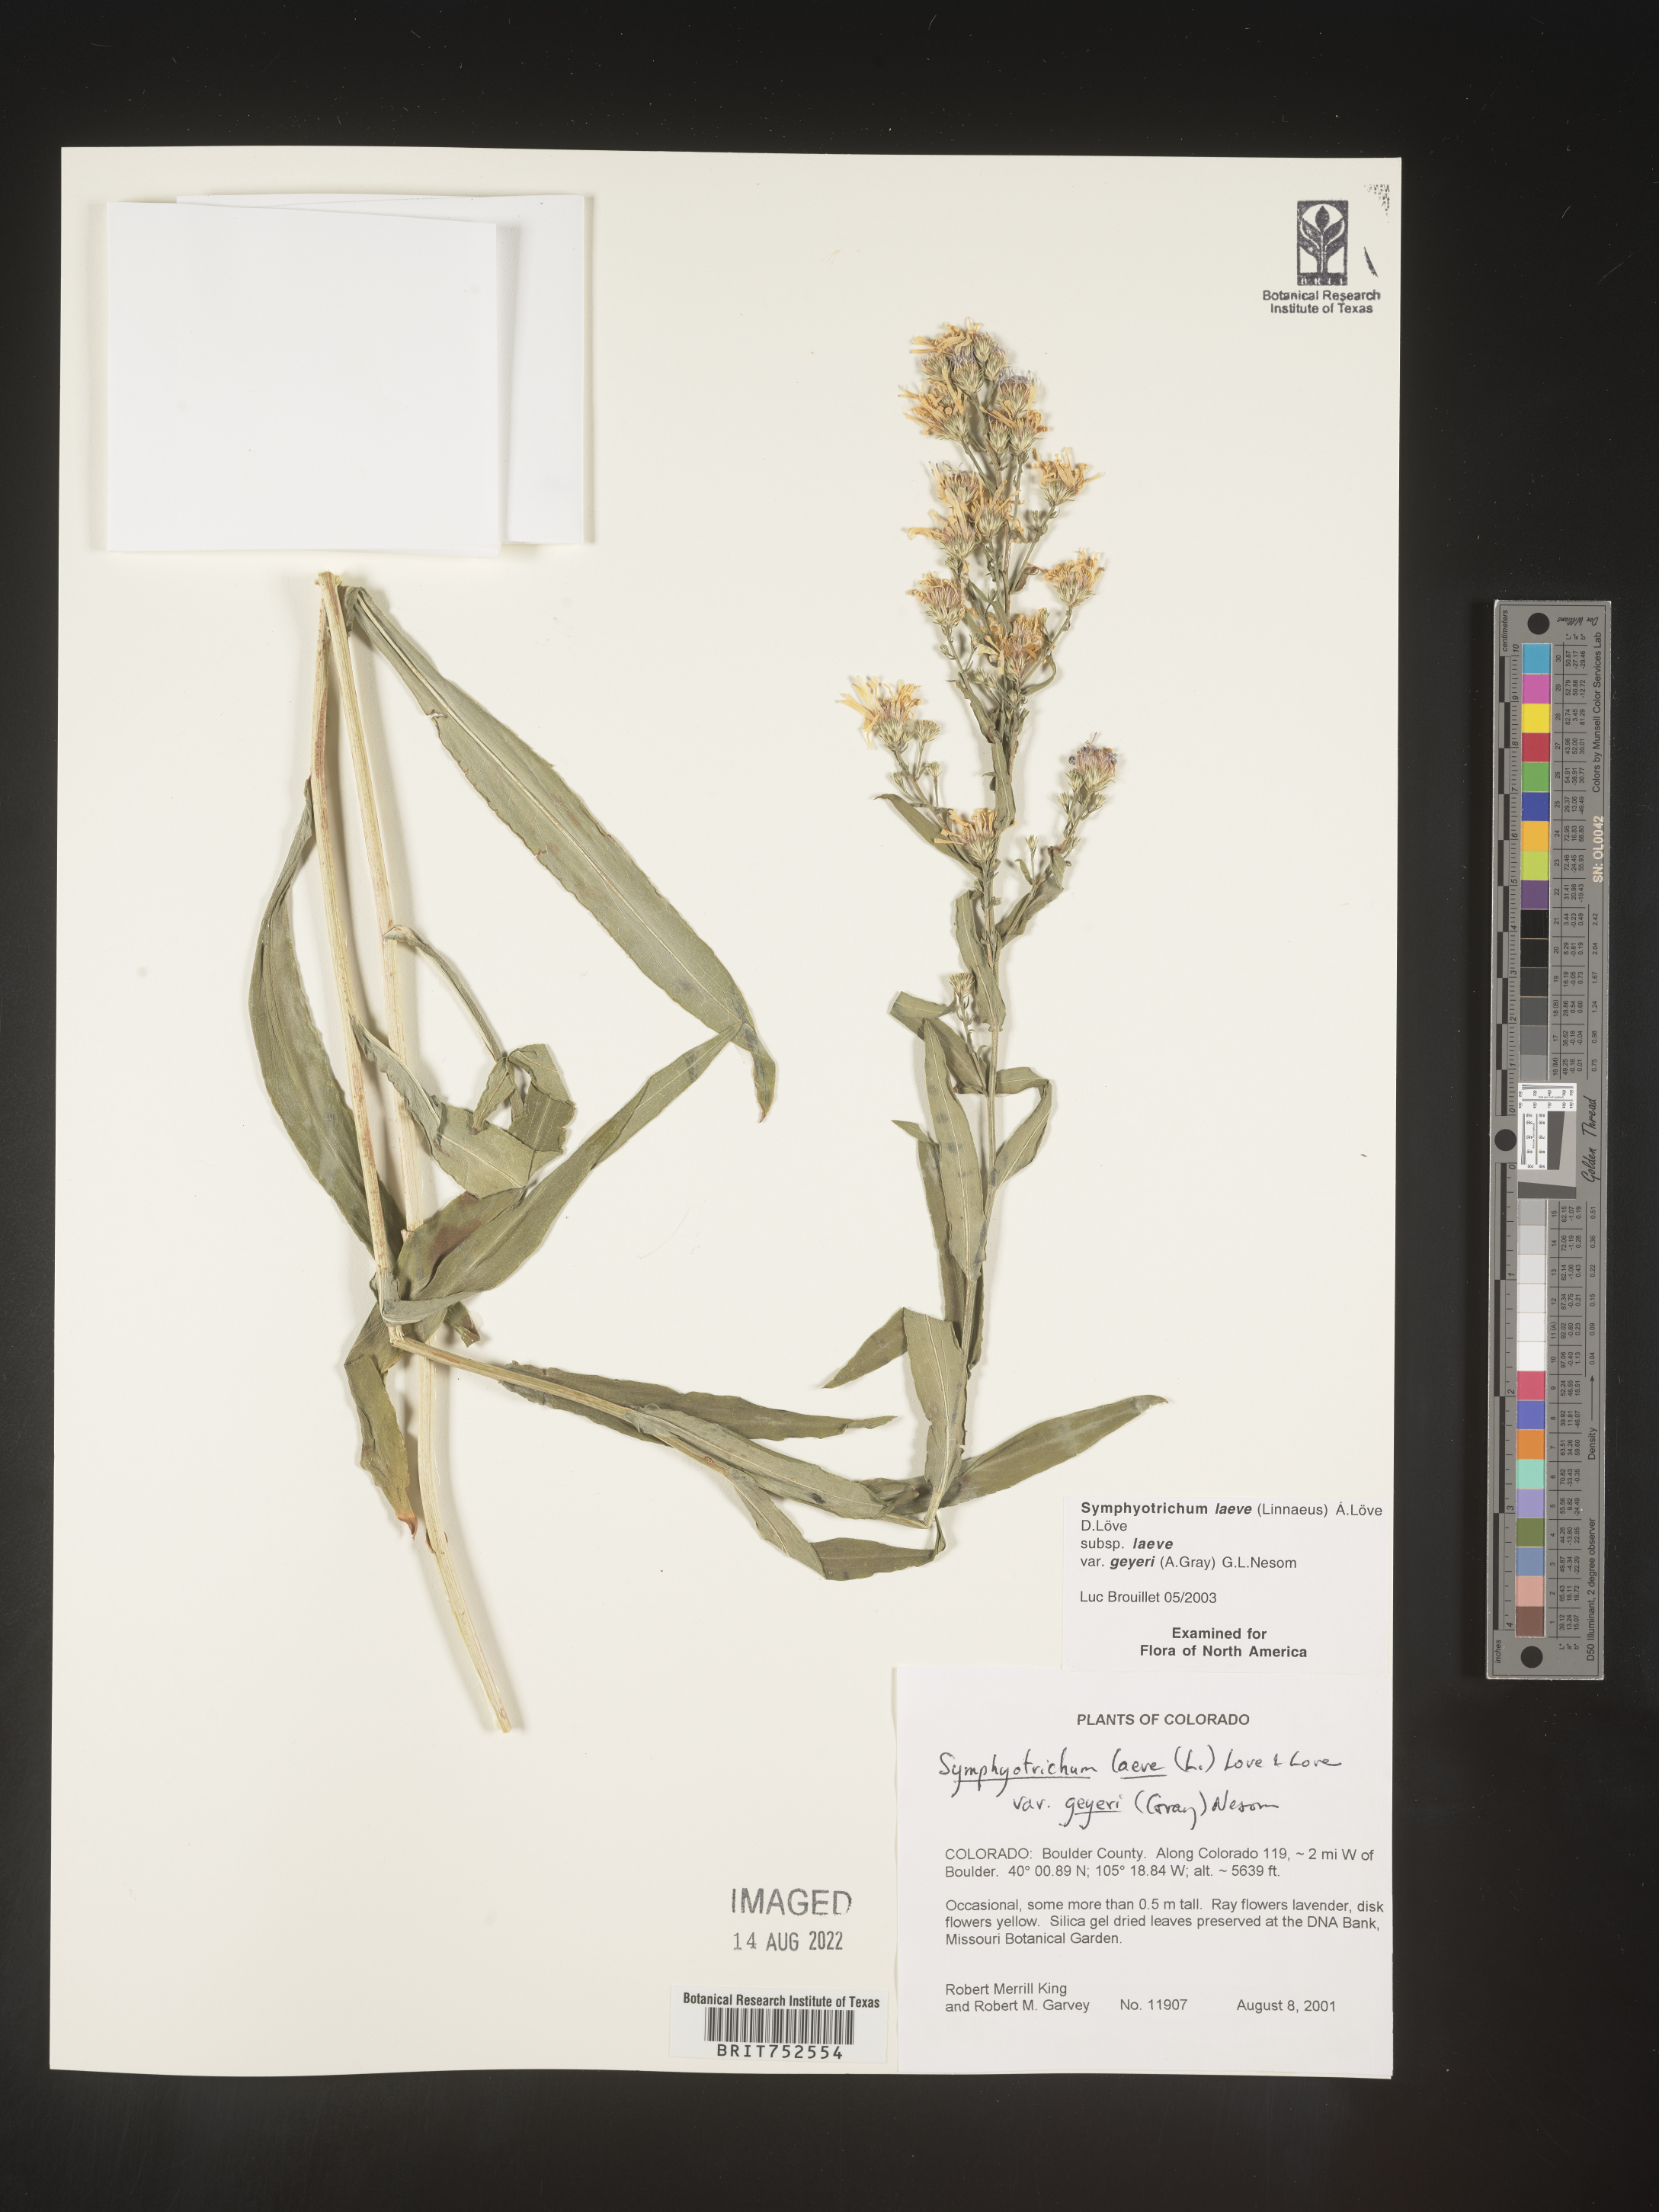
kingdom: Plantae
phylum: Tracheophyta
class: Magnoliopsida
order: Asterales
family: Asteraceae
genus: Symphyotrichum
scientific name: Symphyotrichum laeve
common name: Glaucous aster
